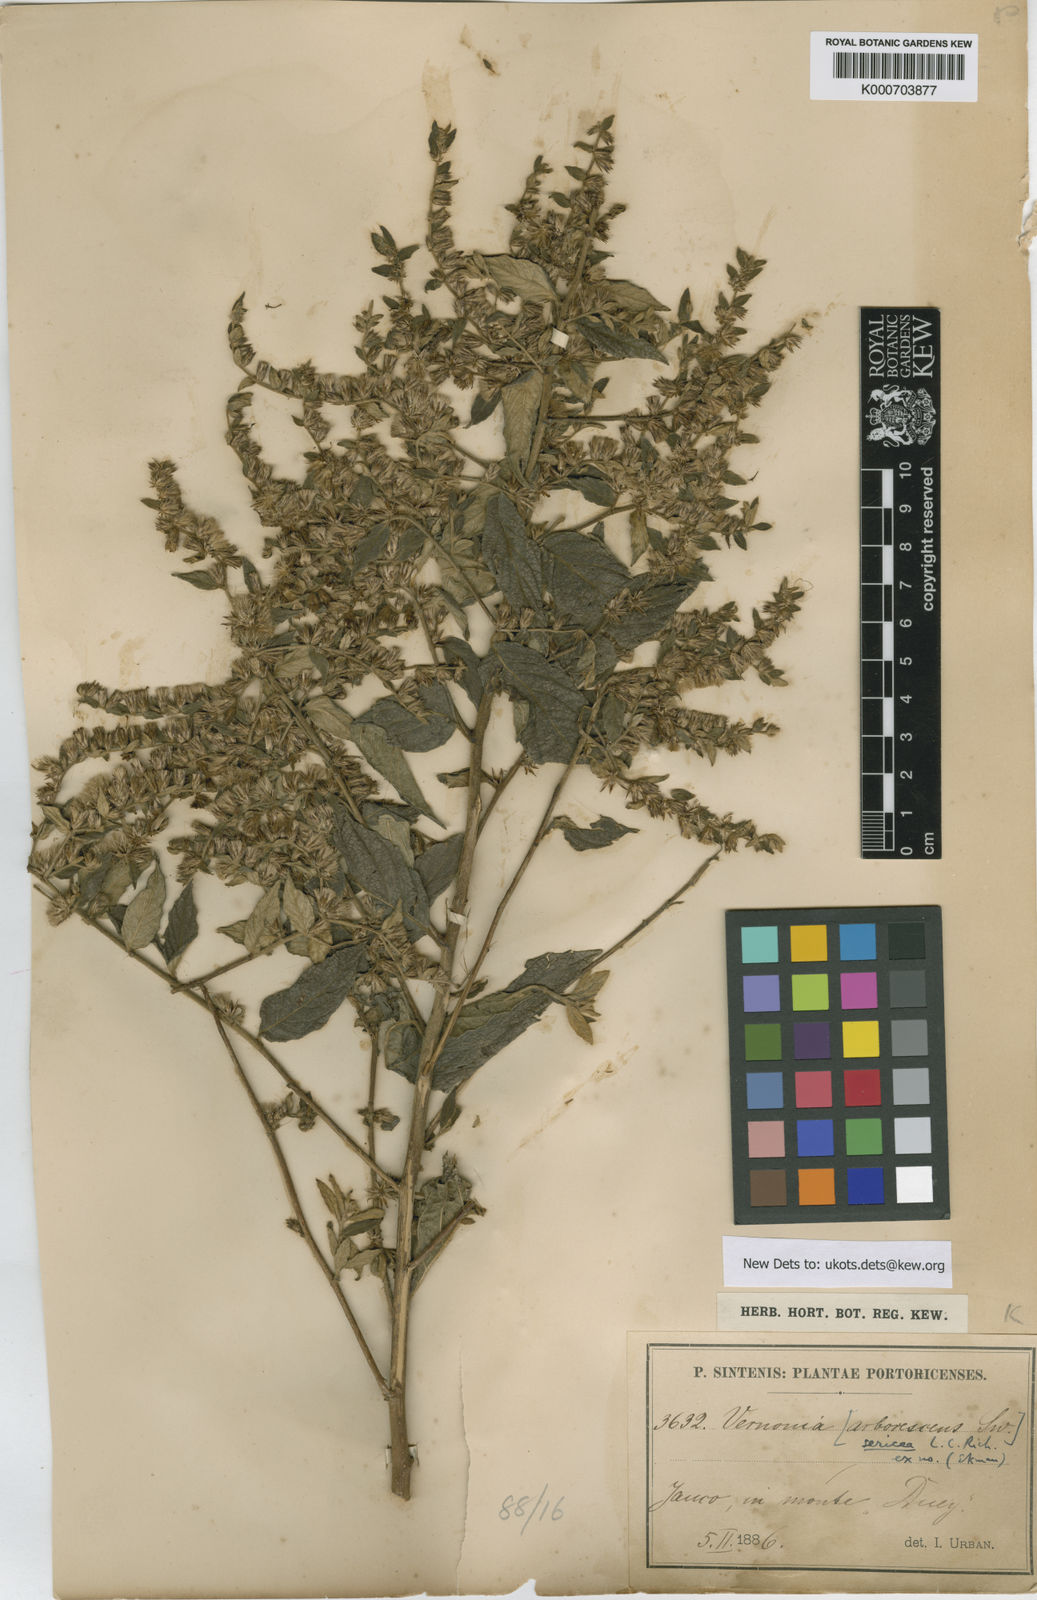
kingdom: Plantae
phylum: Tracheophyta
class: Magnoliopsida
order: Asterales
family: Asteraceae
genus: Lepidaploa
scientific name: Lepidaploa sericea
